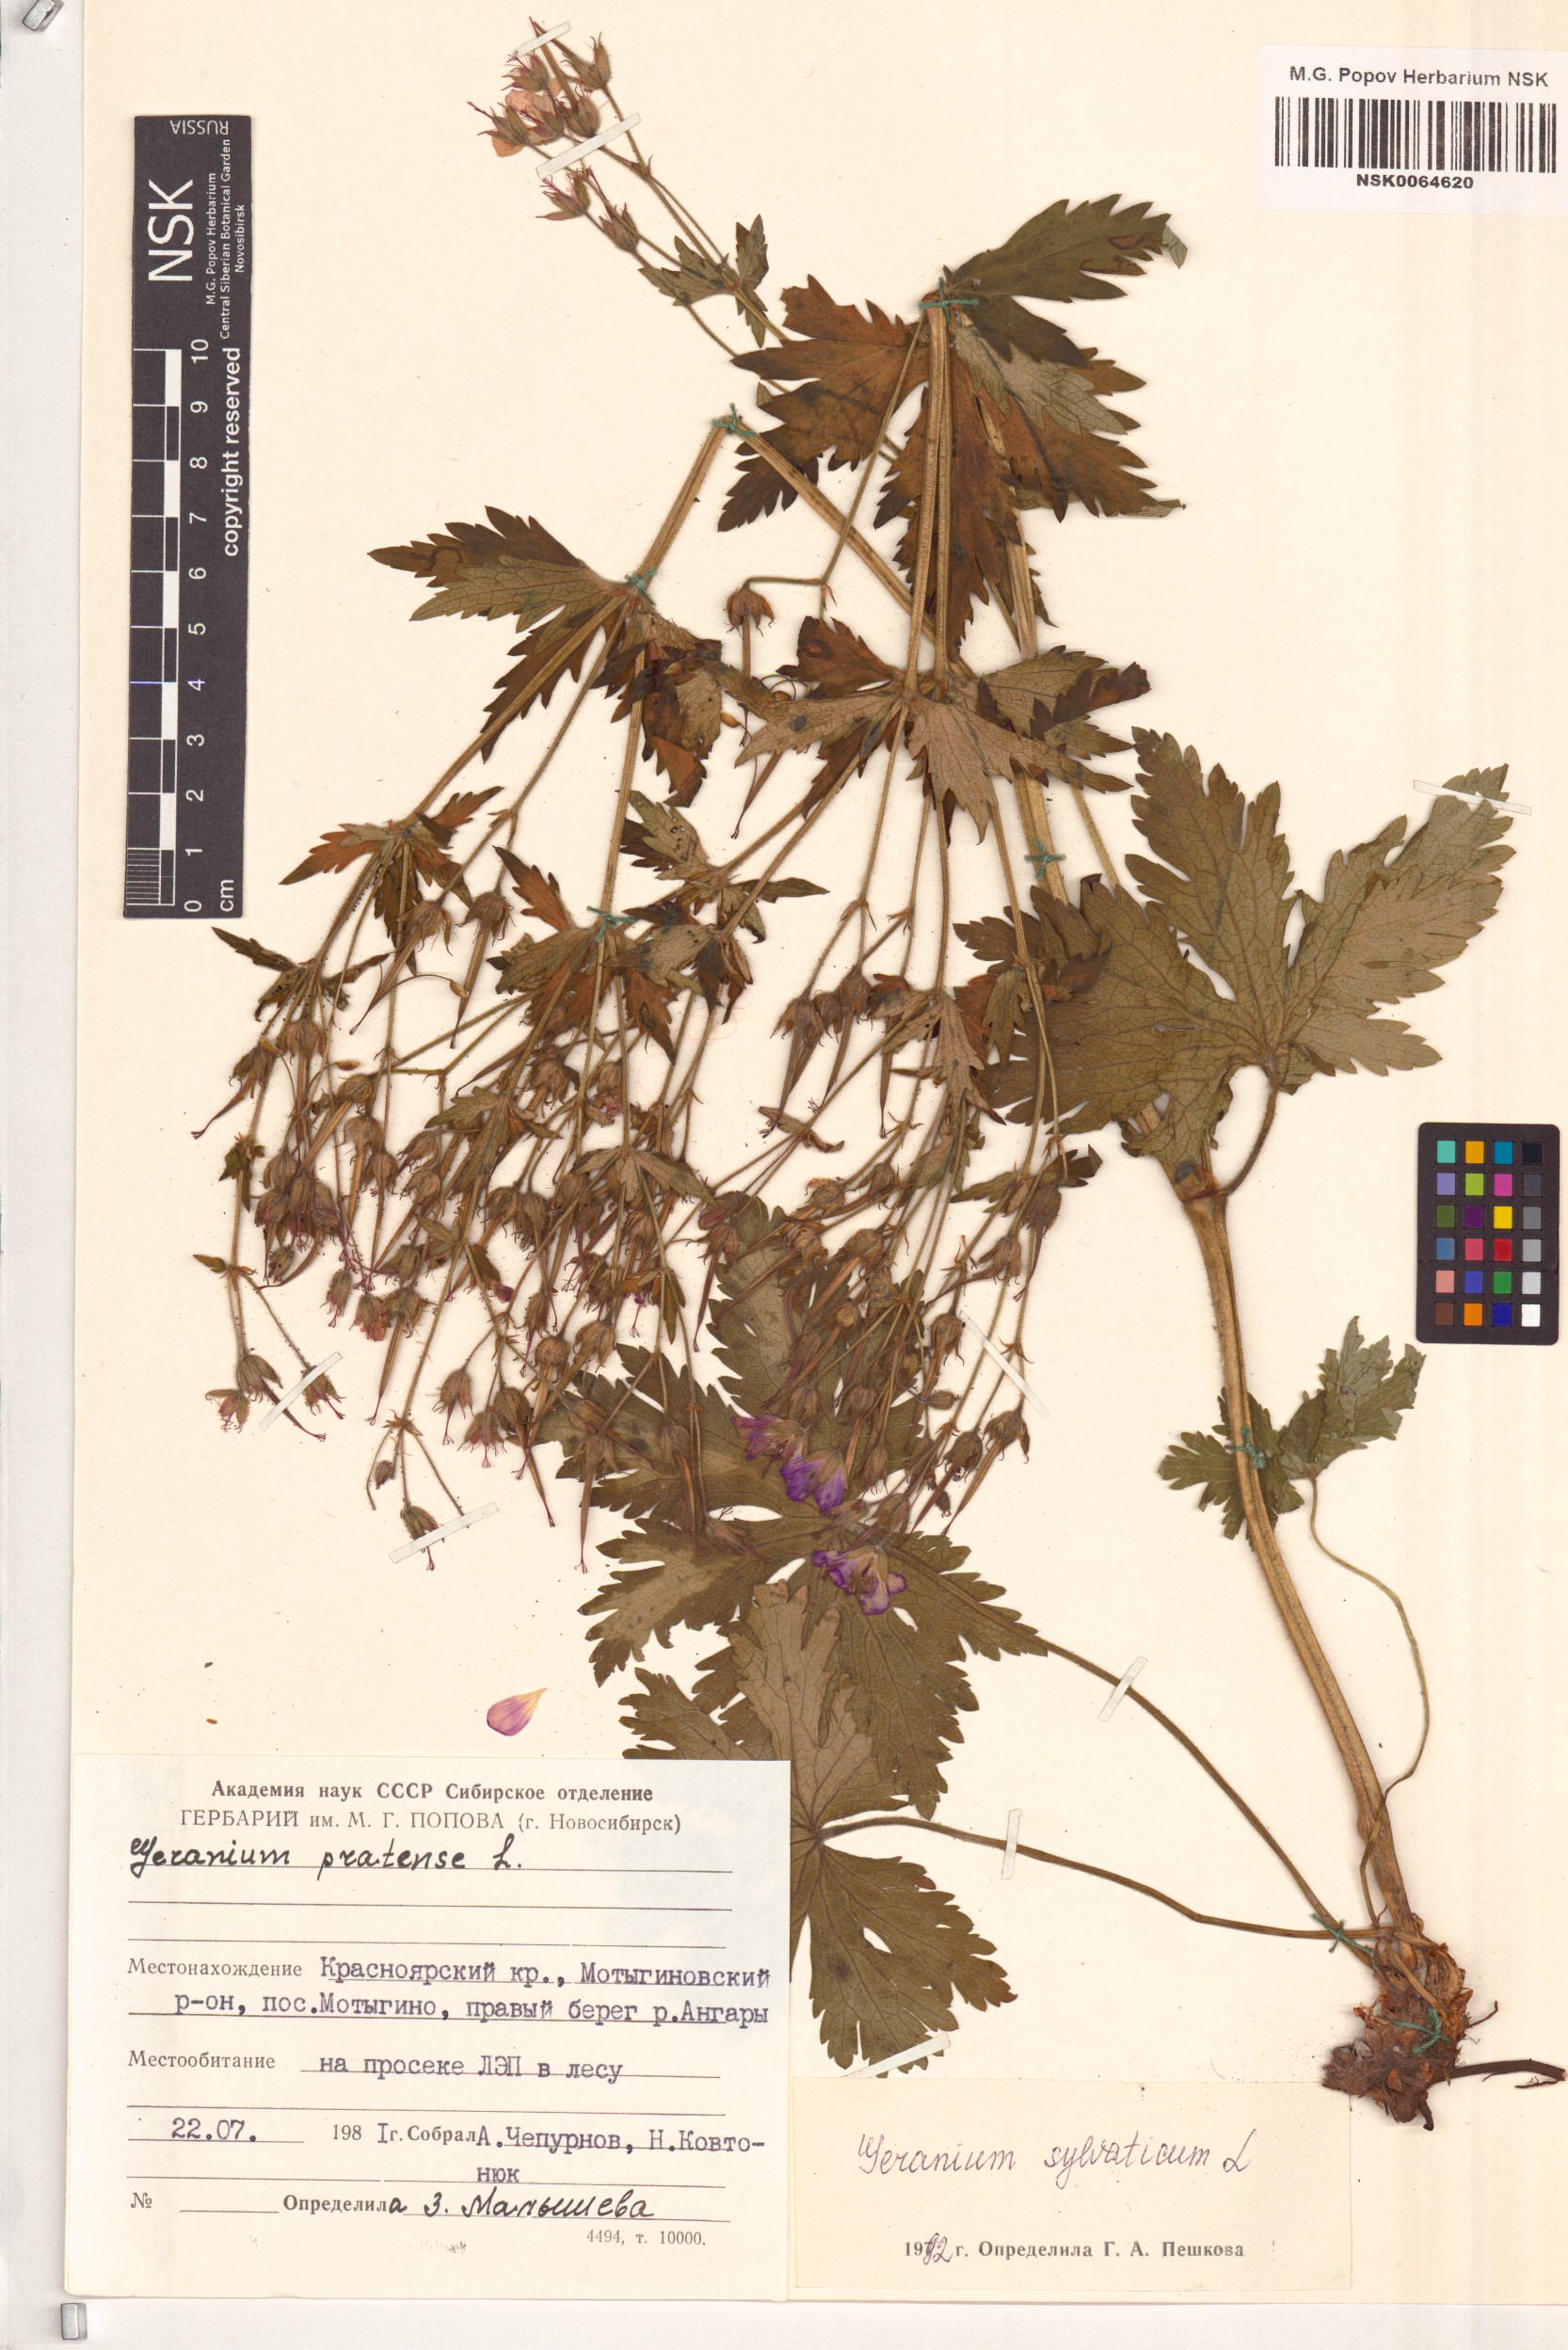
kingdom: Plantae
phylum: Tracheophyta
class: Magnoliopsida
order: Geraniales
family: Geraniaceae
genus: Geranium
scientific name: Geranium sylvaticum
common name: Wood crane's-bill
